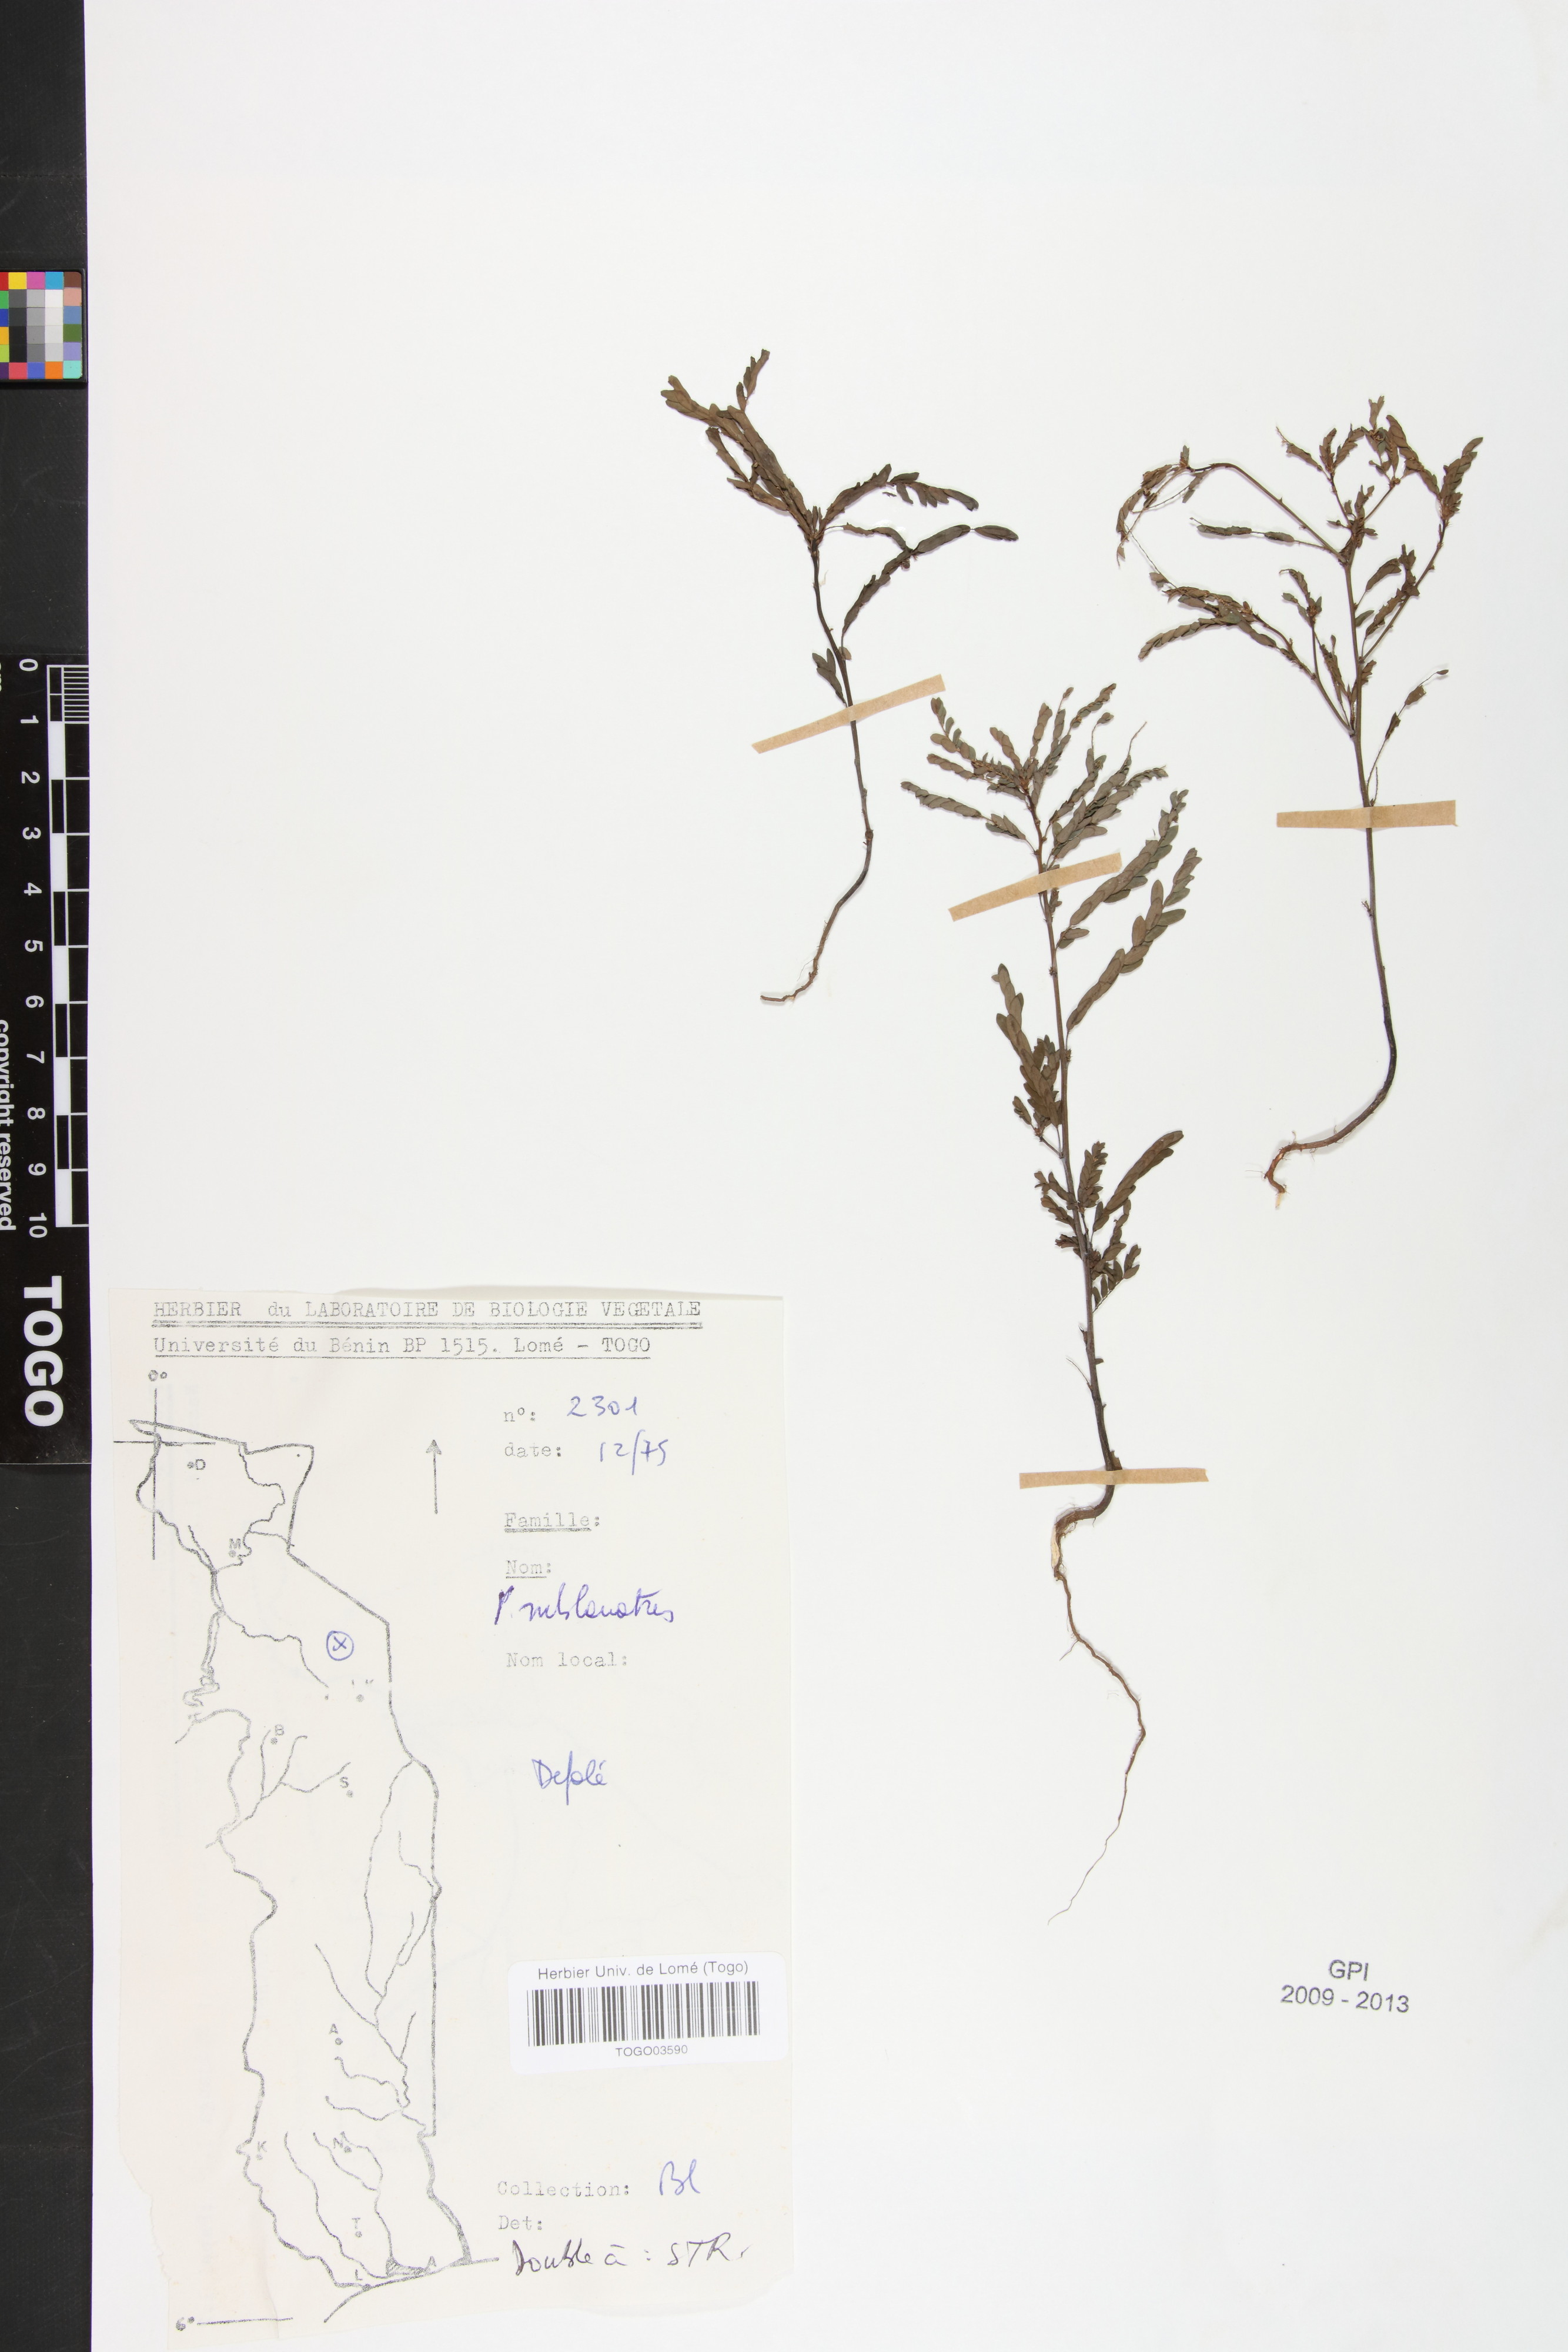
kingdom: Plantae
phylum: Tracheophyta
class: Magnoliopsida
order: Malpighiales
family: Phyllanthaceae
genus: Phyllanthus
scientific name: Phyllanthus sublanatus
